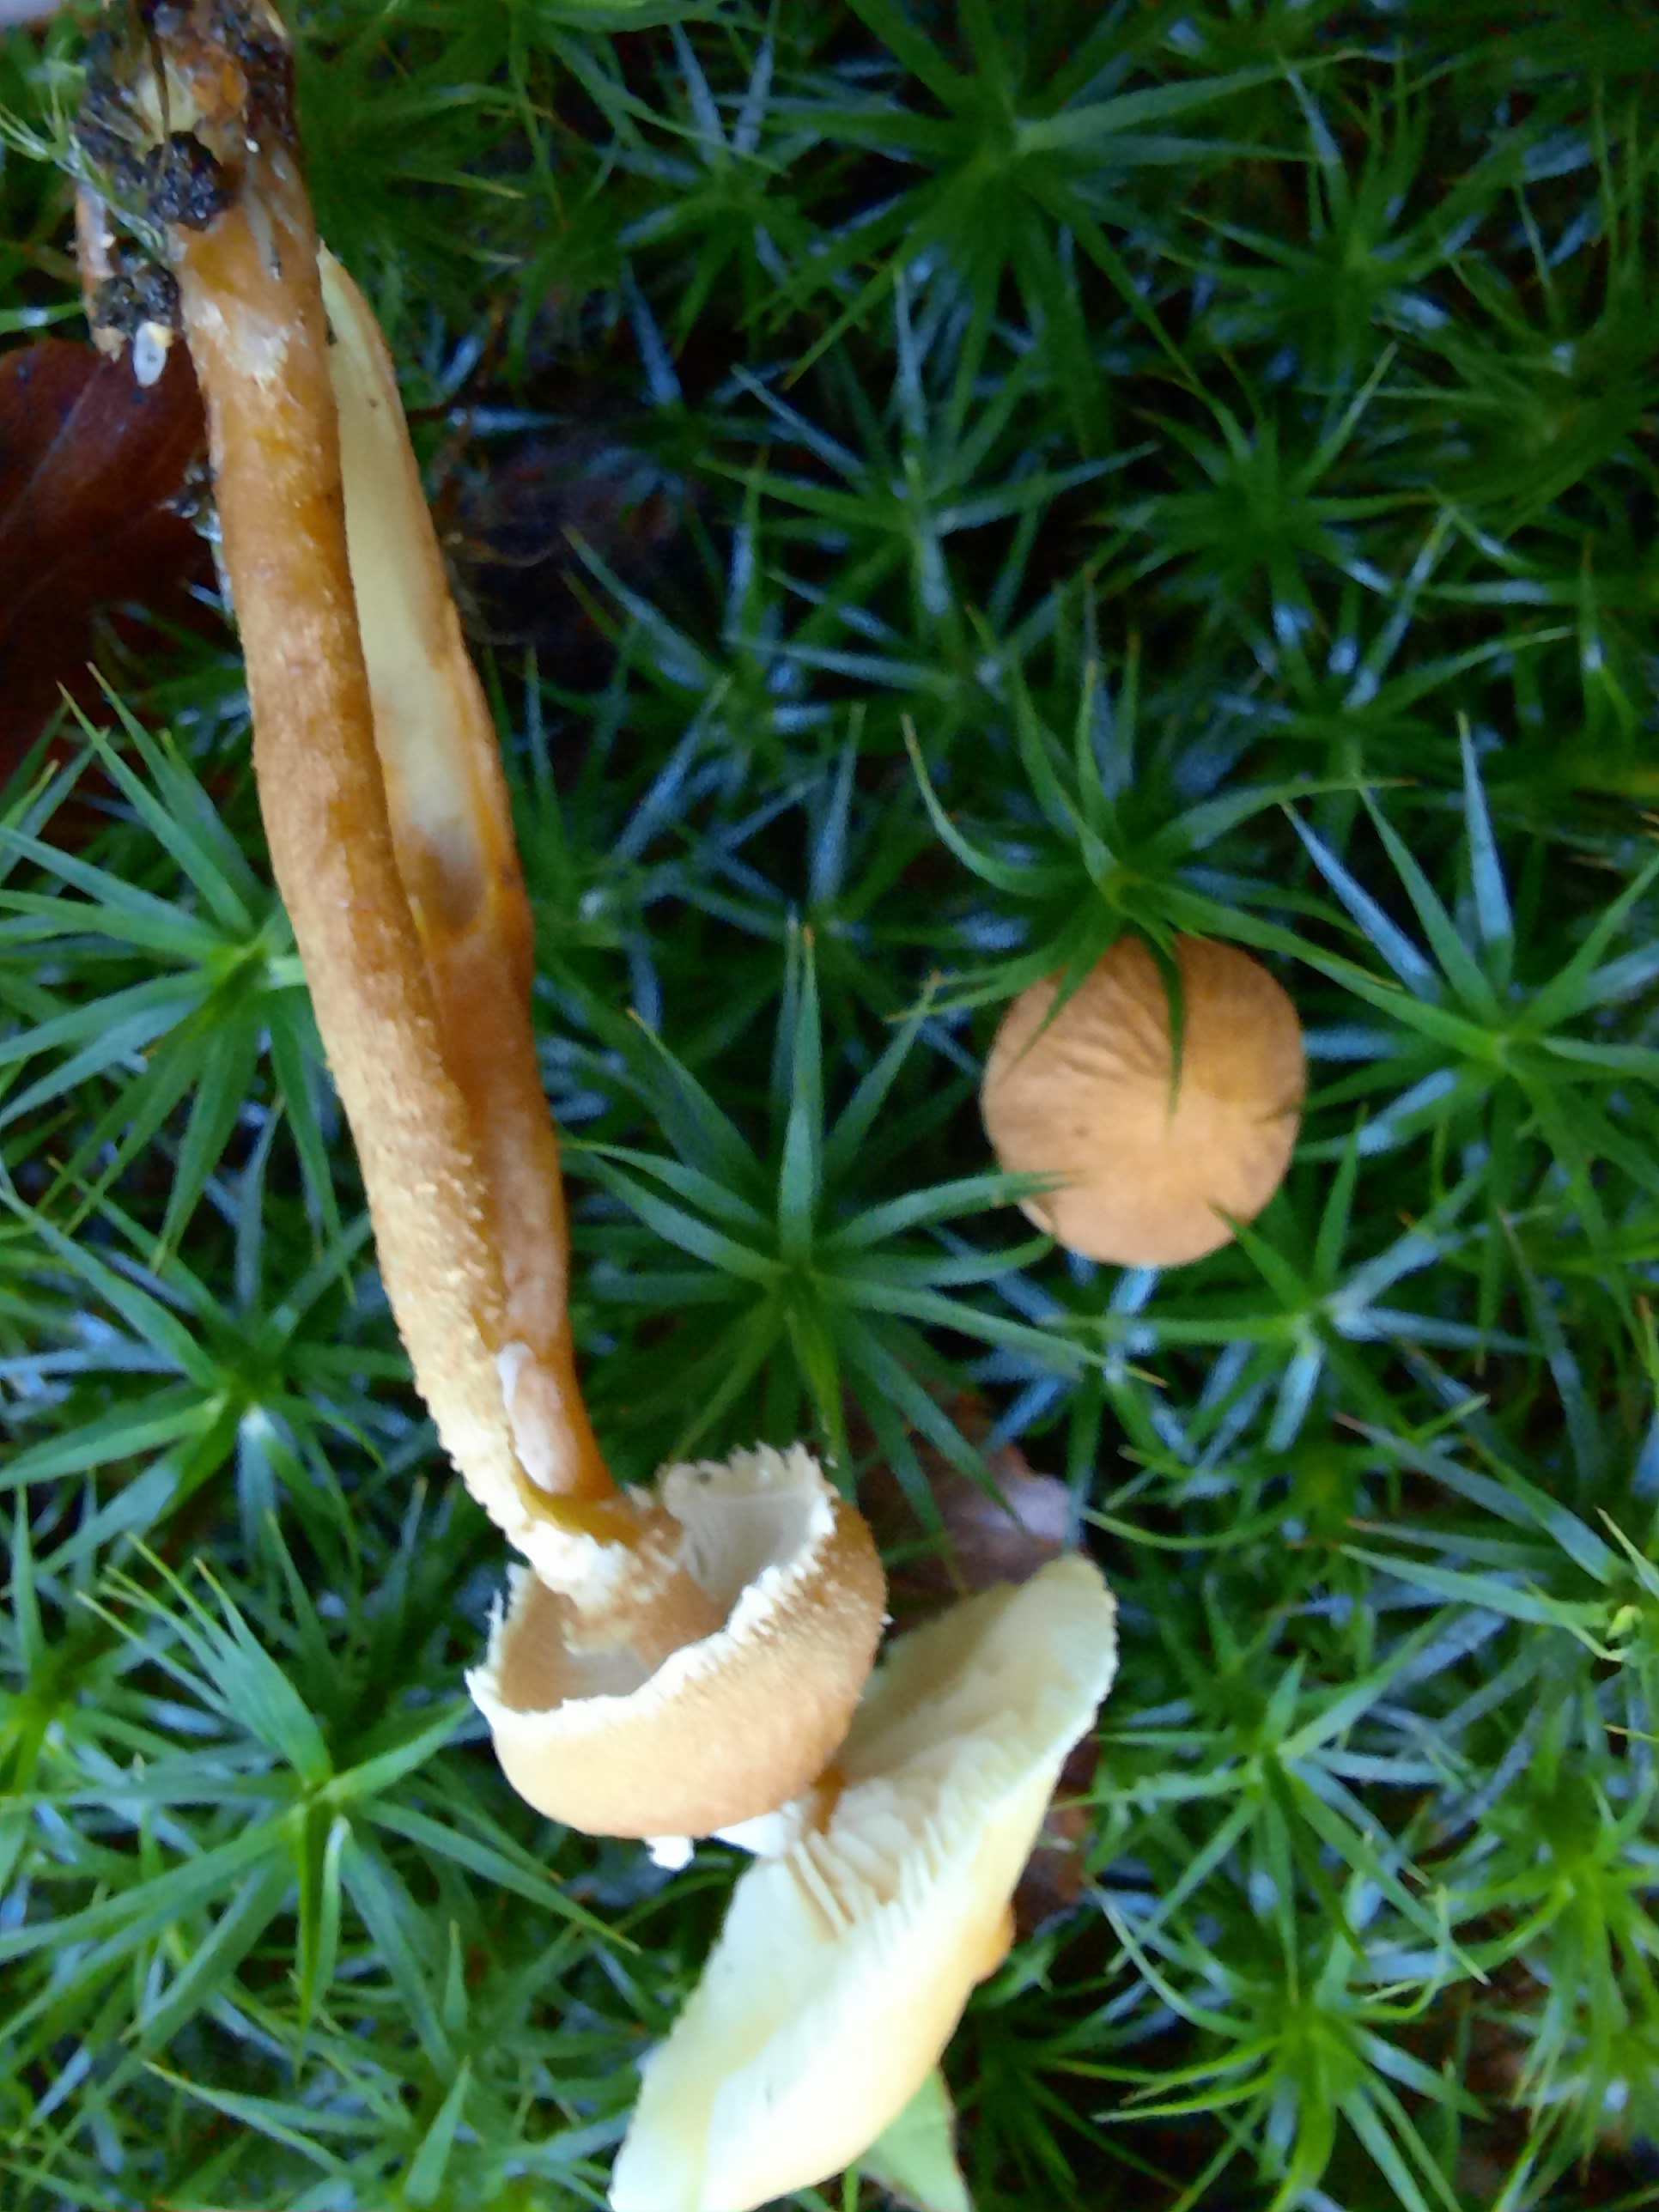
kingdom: Fungi
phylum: Basidiomycota
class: Agaricomycetes
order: Agaricales
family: Tricholomataceae
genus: Cystoderma
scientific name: Cystoderma amianthinum
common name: okkergul grynhat
